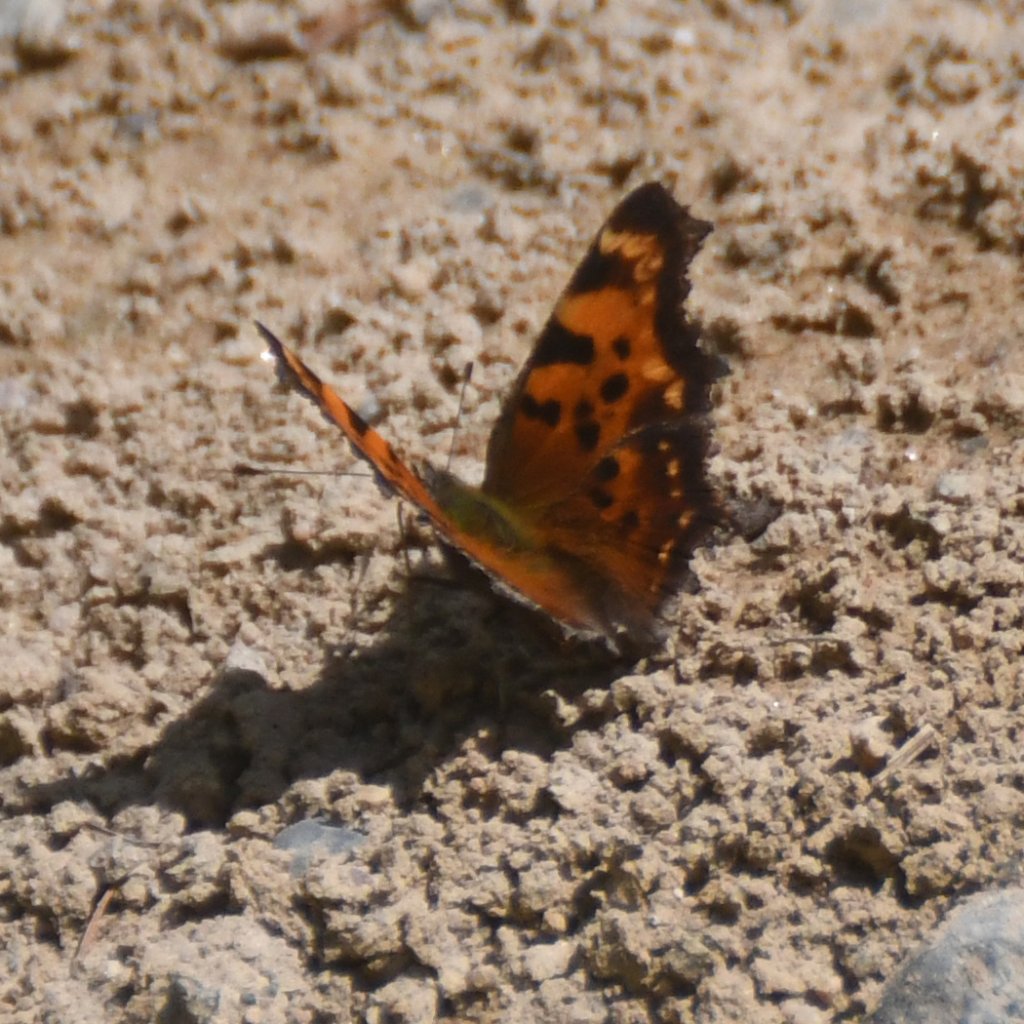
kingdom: Animalia
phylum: Arthropoda
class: Insecta
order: Lepidoptera
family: Nymphalidae
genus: Polygonia
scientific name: Polygonia faunus
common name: Green Comma
